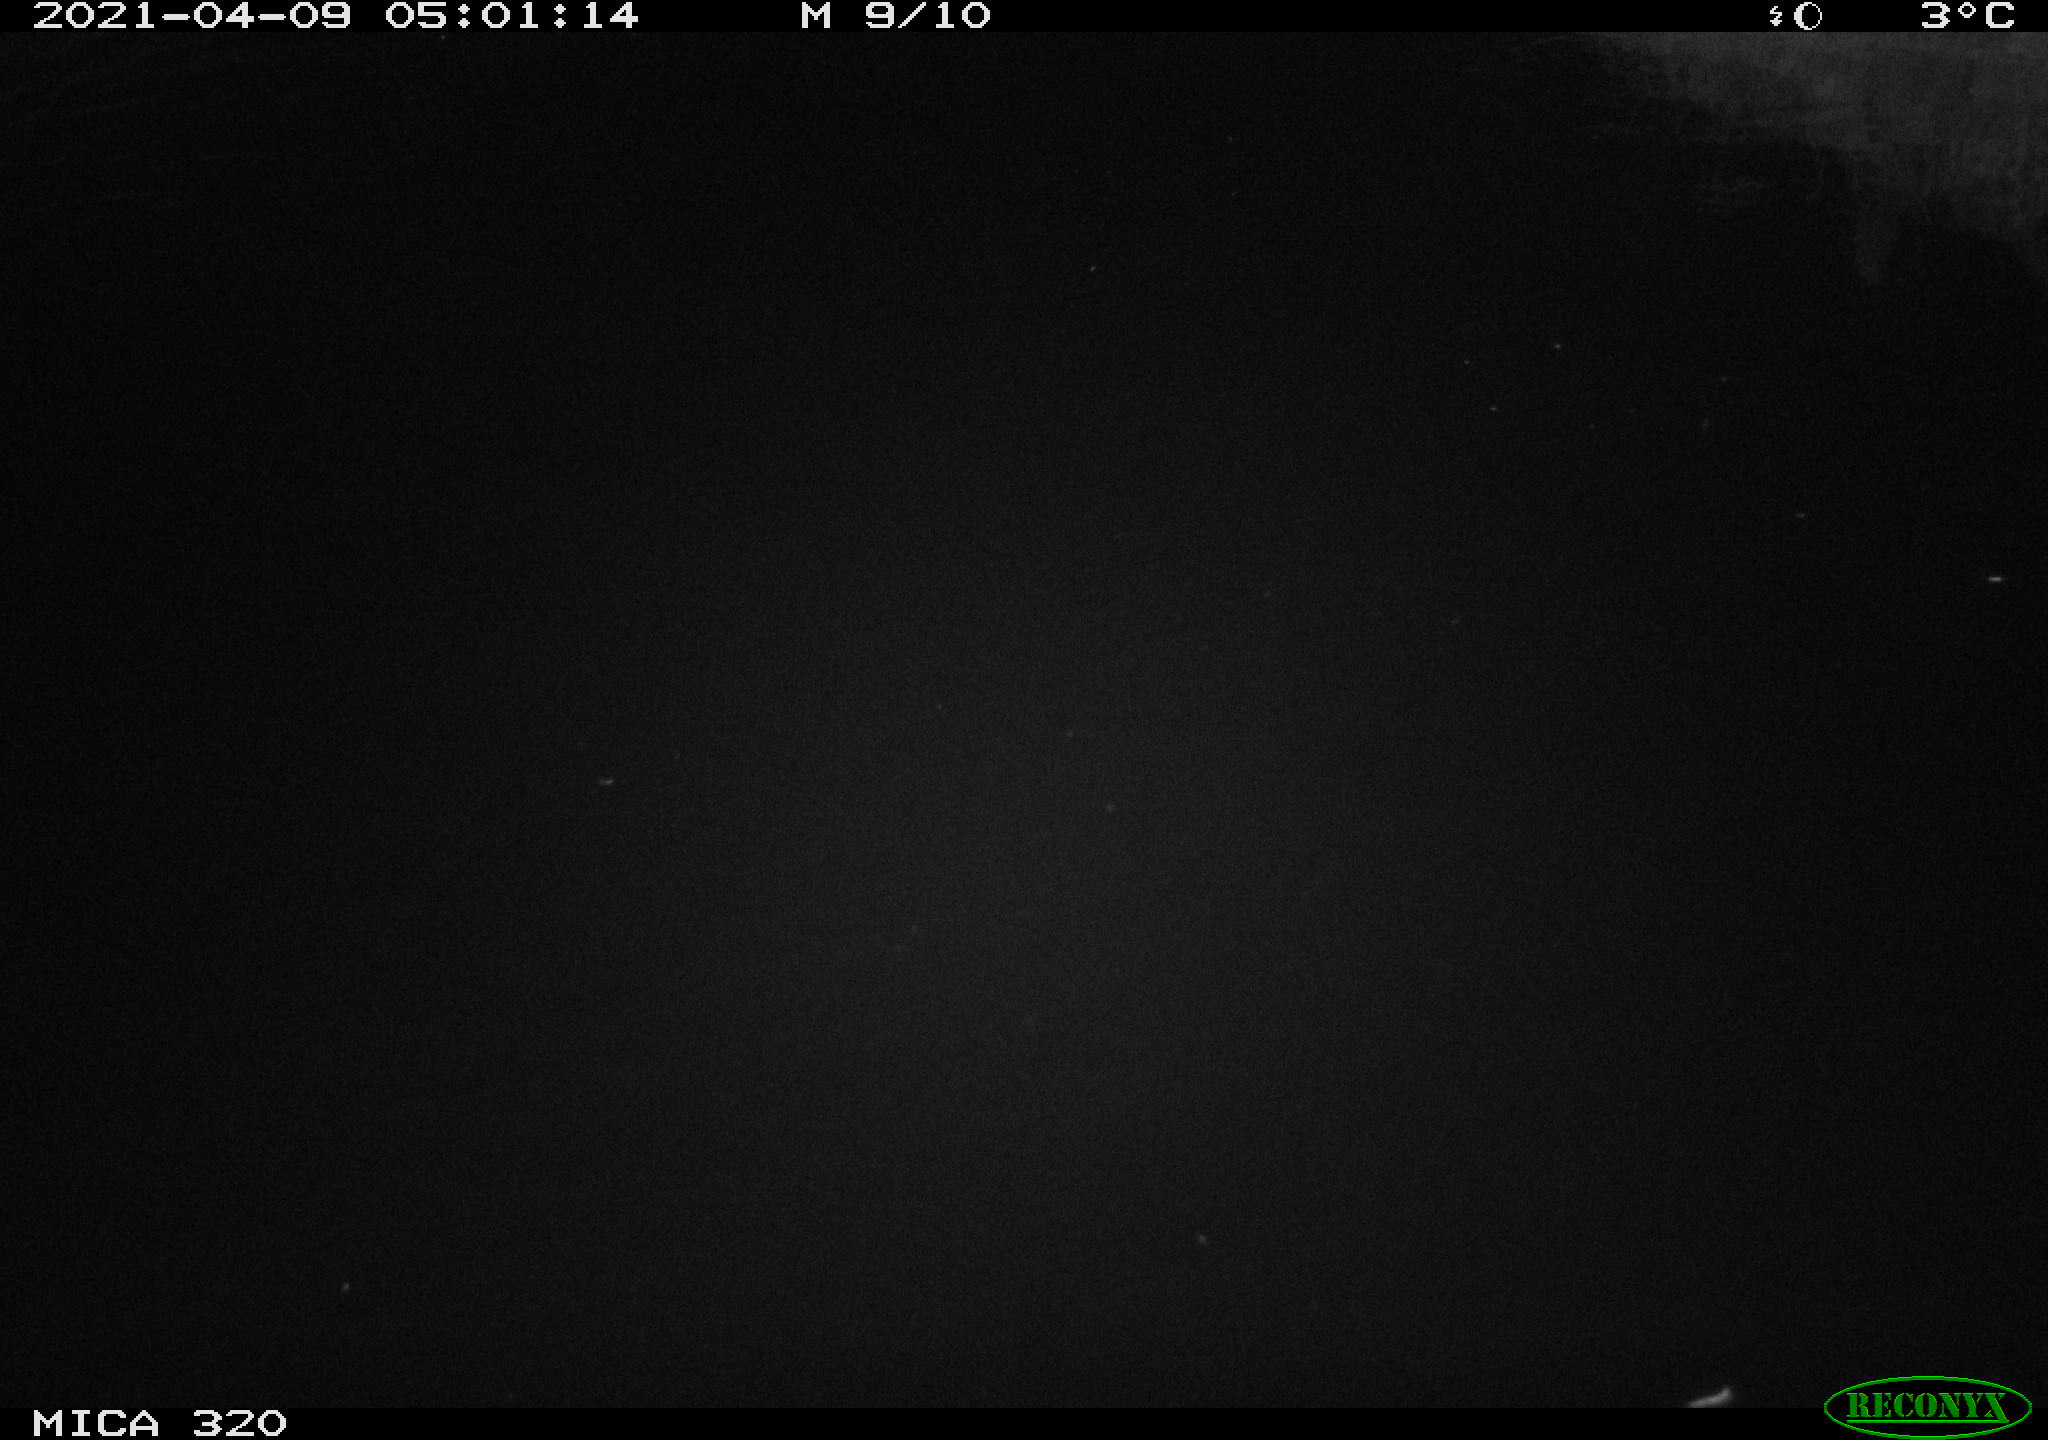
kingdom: Animalia
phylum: Chordata
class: Aves
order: Anseriformes
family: Anatidae
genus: Anas
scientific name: Anas platyrhynchos
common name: Mallard
